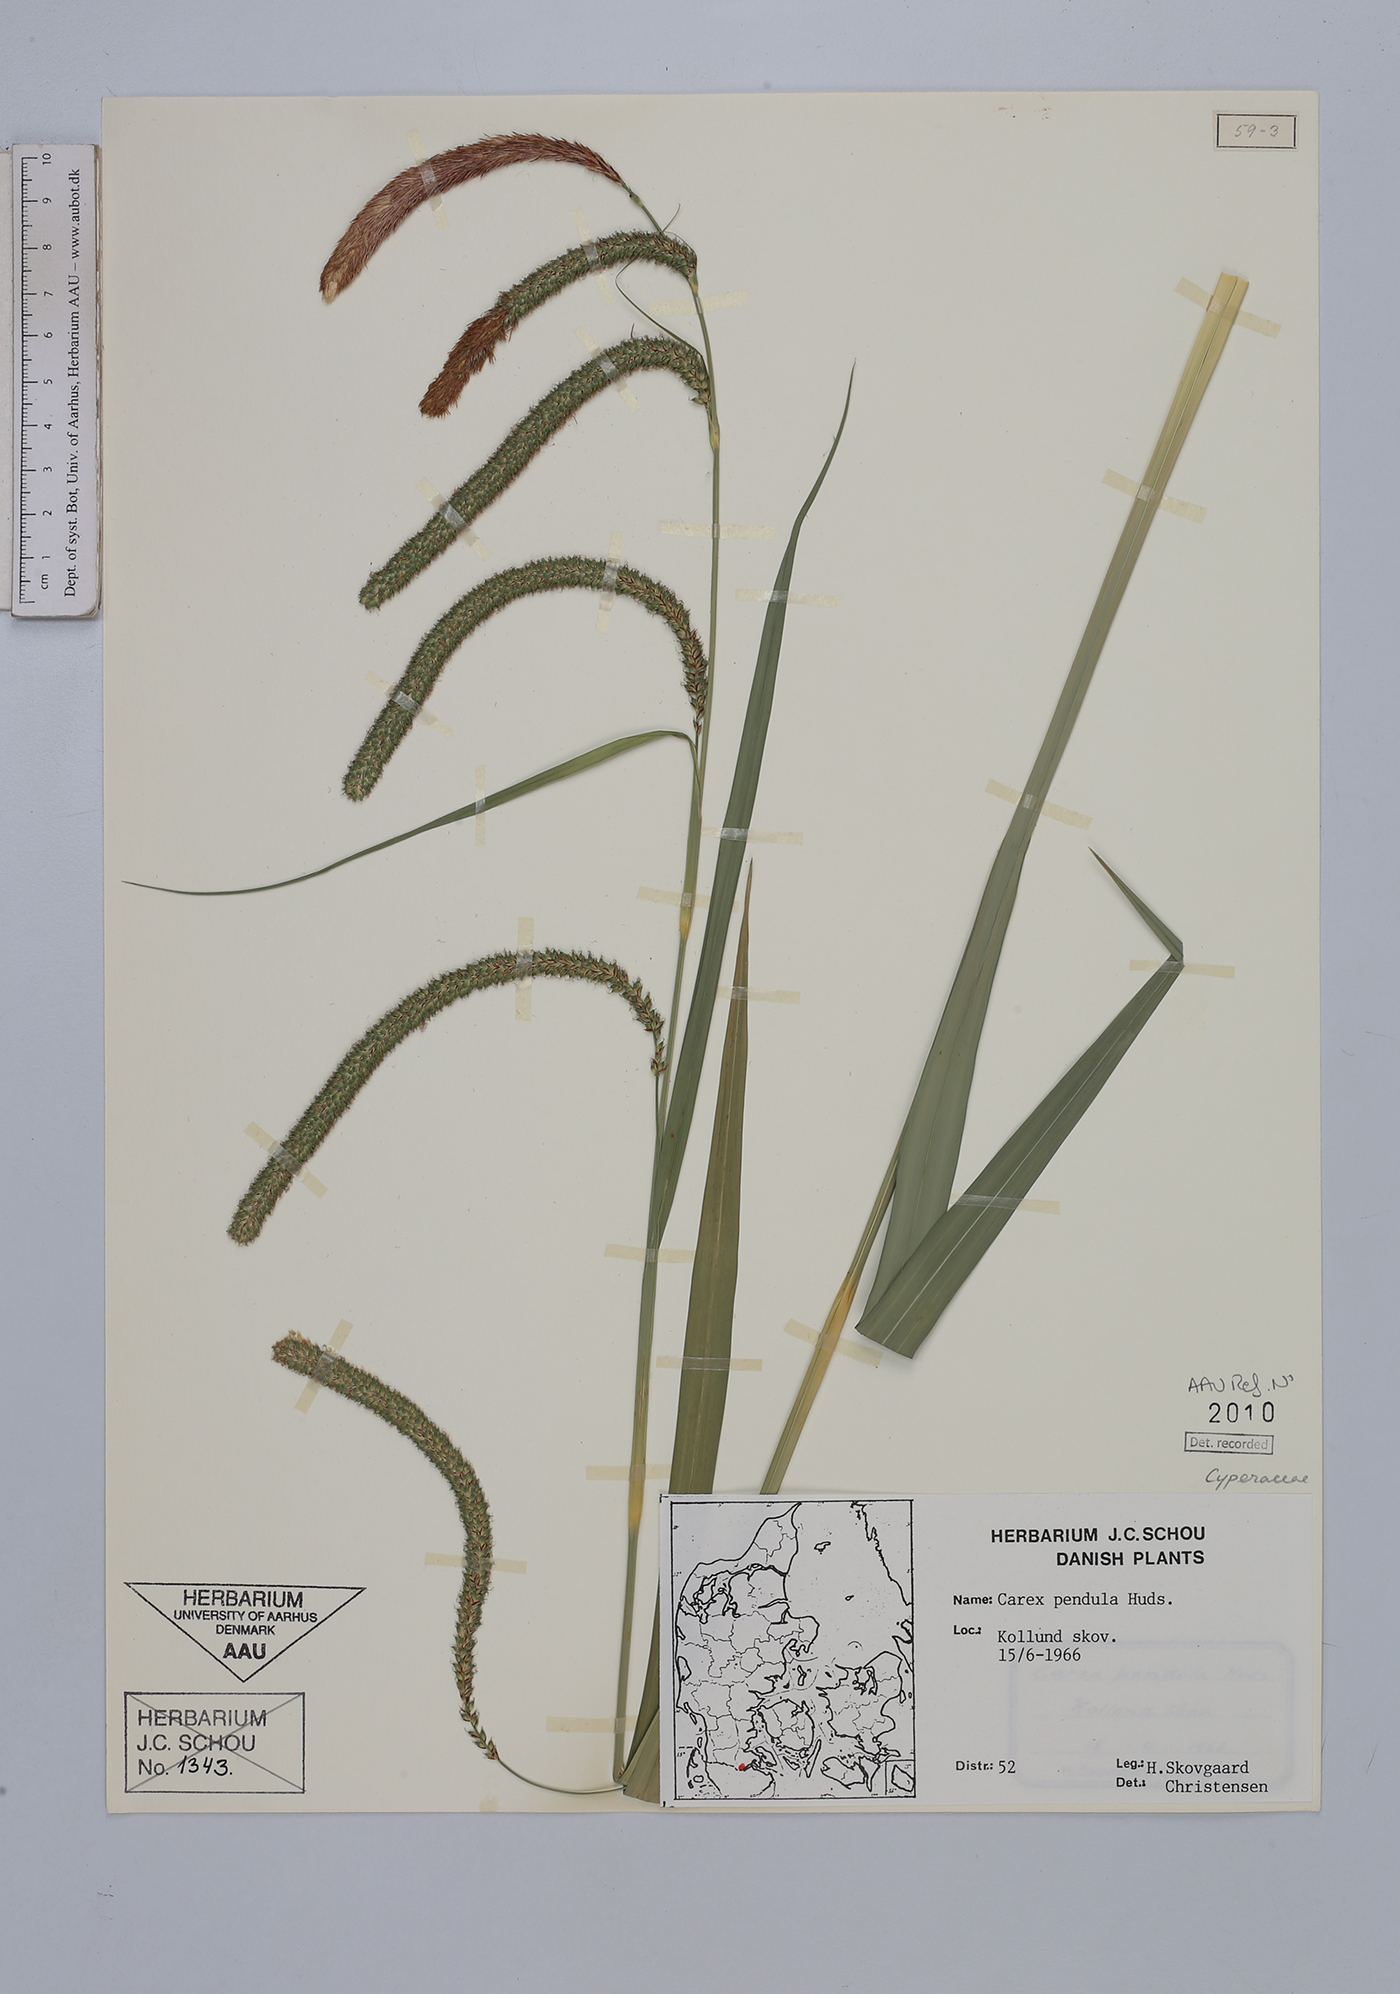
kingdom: Plantae
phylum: Tracheophyta
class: Liliopsida
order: Poales
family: Cyperaceae
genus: Carex
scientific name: Carex pendula
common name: Pendulous sedge
